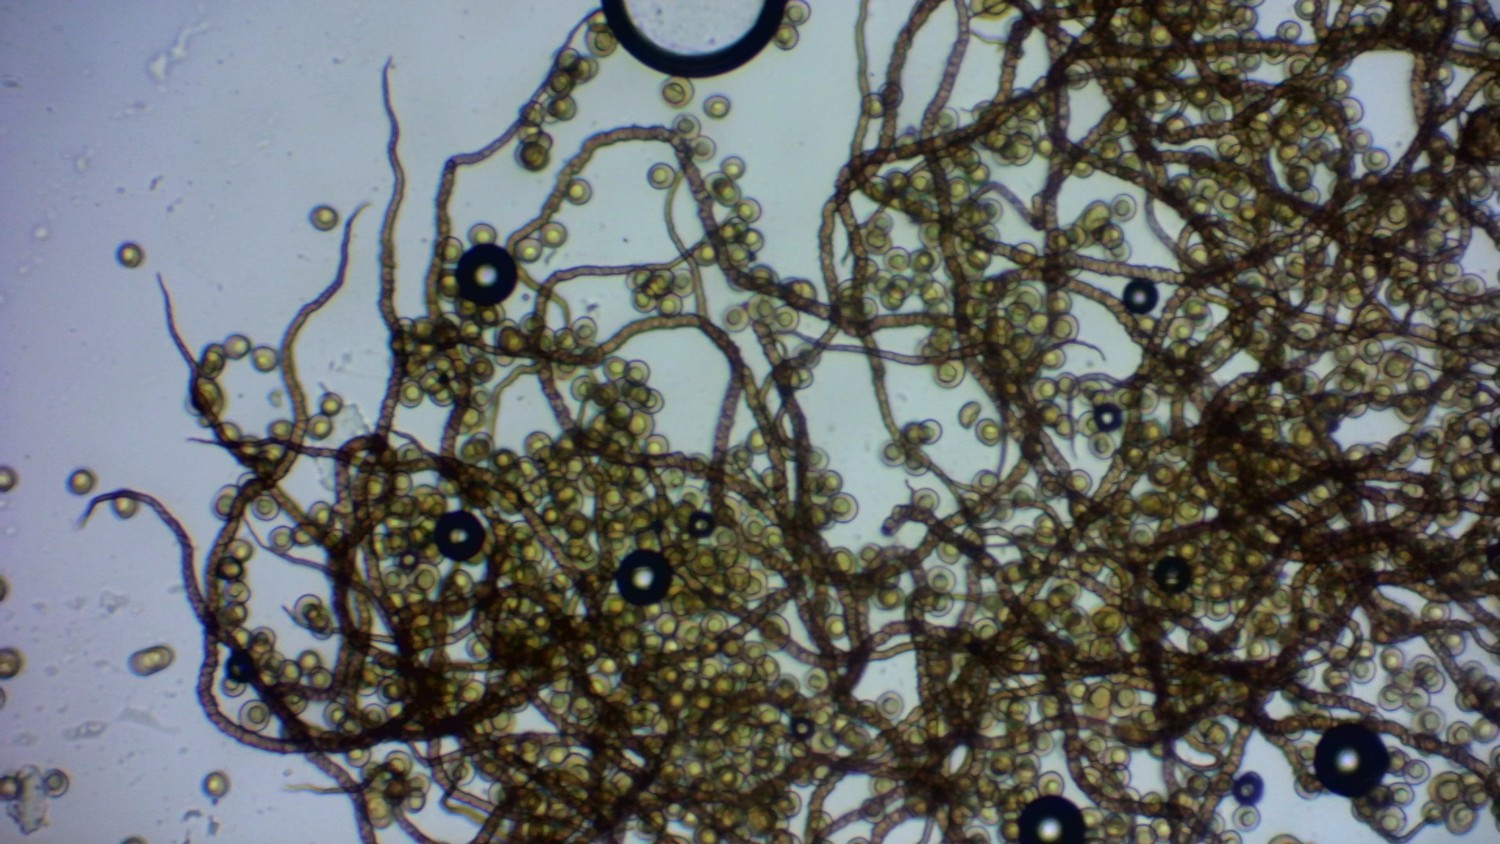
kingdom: Protozoa
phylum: Mycetozoa
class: Myxomycetes
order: Trichiales
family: Trichiaceae
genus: Trichia
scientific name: Trichia botrytis
